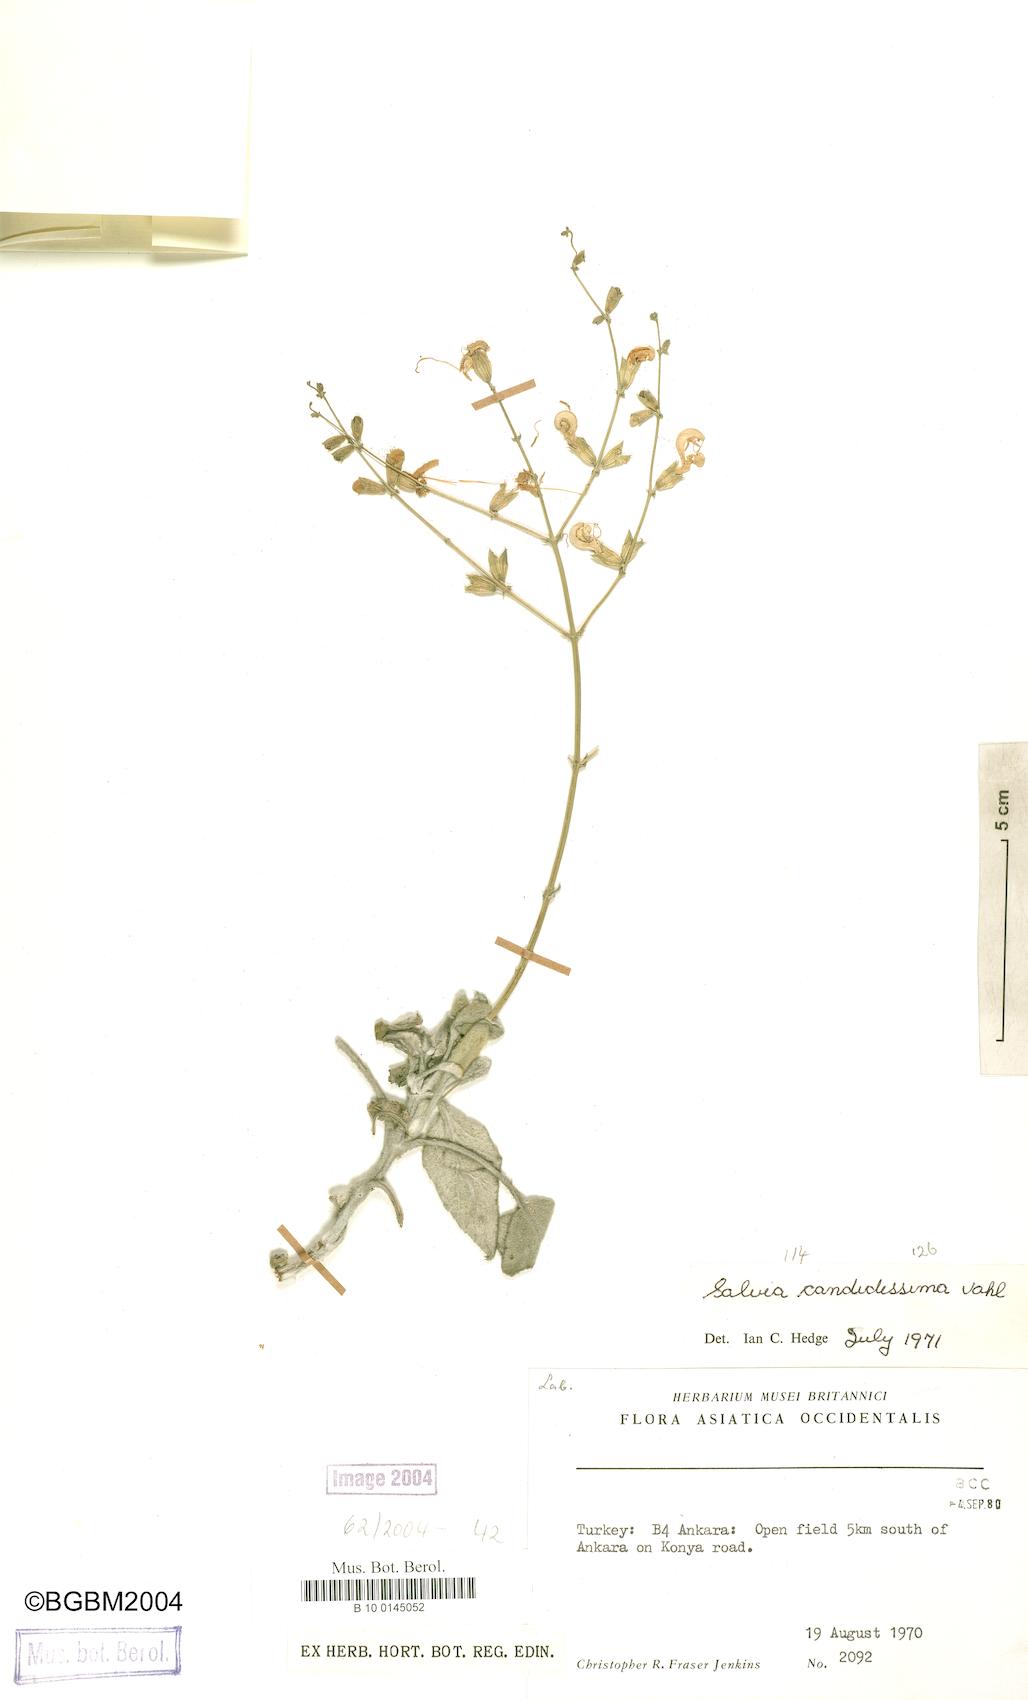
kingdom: Plantae
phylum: Tracheophyta
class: Magnoliopsida
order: Lamiales
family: Lamiaceae
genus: Salvia
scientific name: Salvia candidissima
